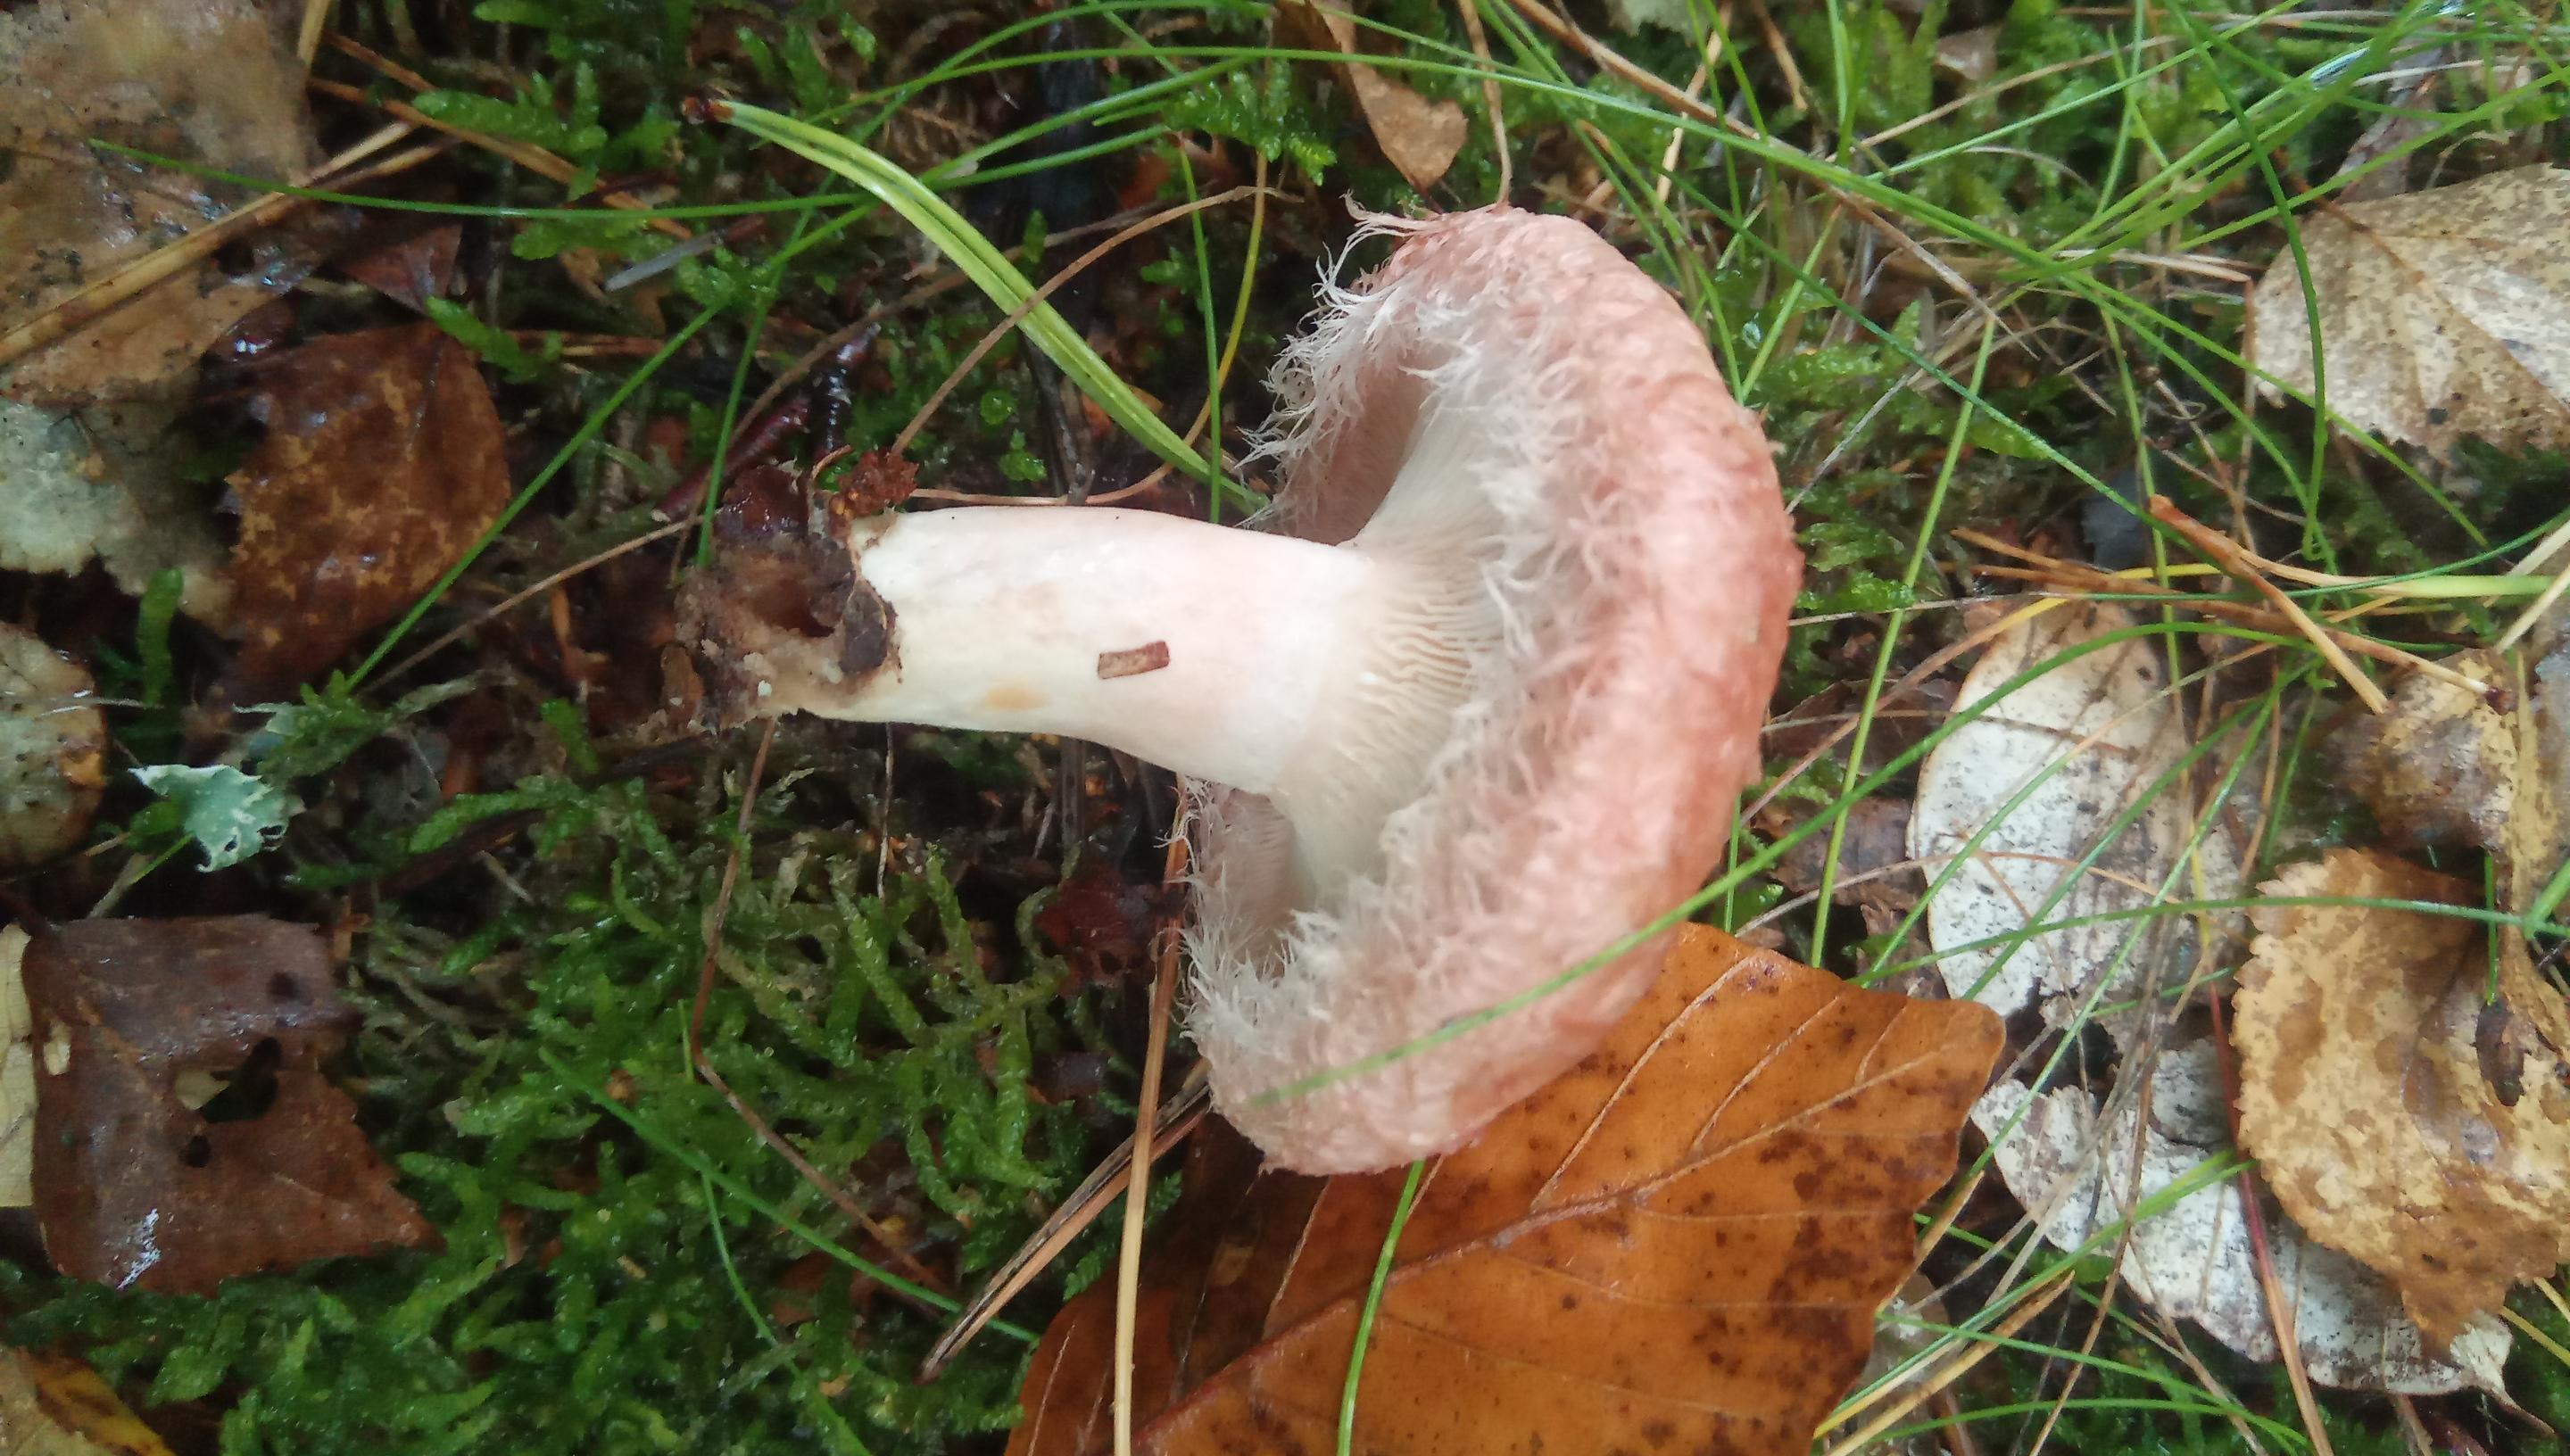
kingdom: Fungi
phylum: Basidiomycota
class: Agaricomycetes
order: Russulales
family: Russulaceae
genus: Lactarius
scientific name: Lactarius torminosus
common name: skægget mælkehat
